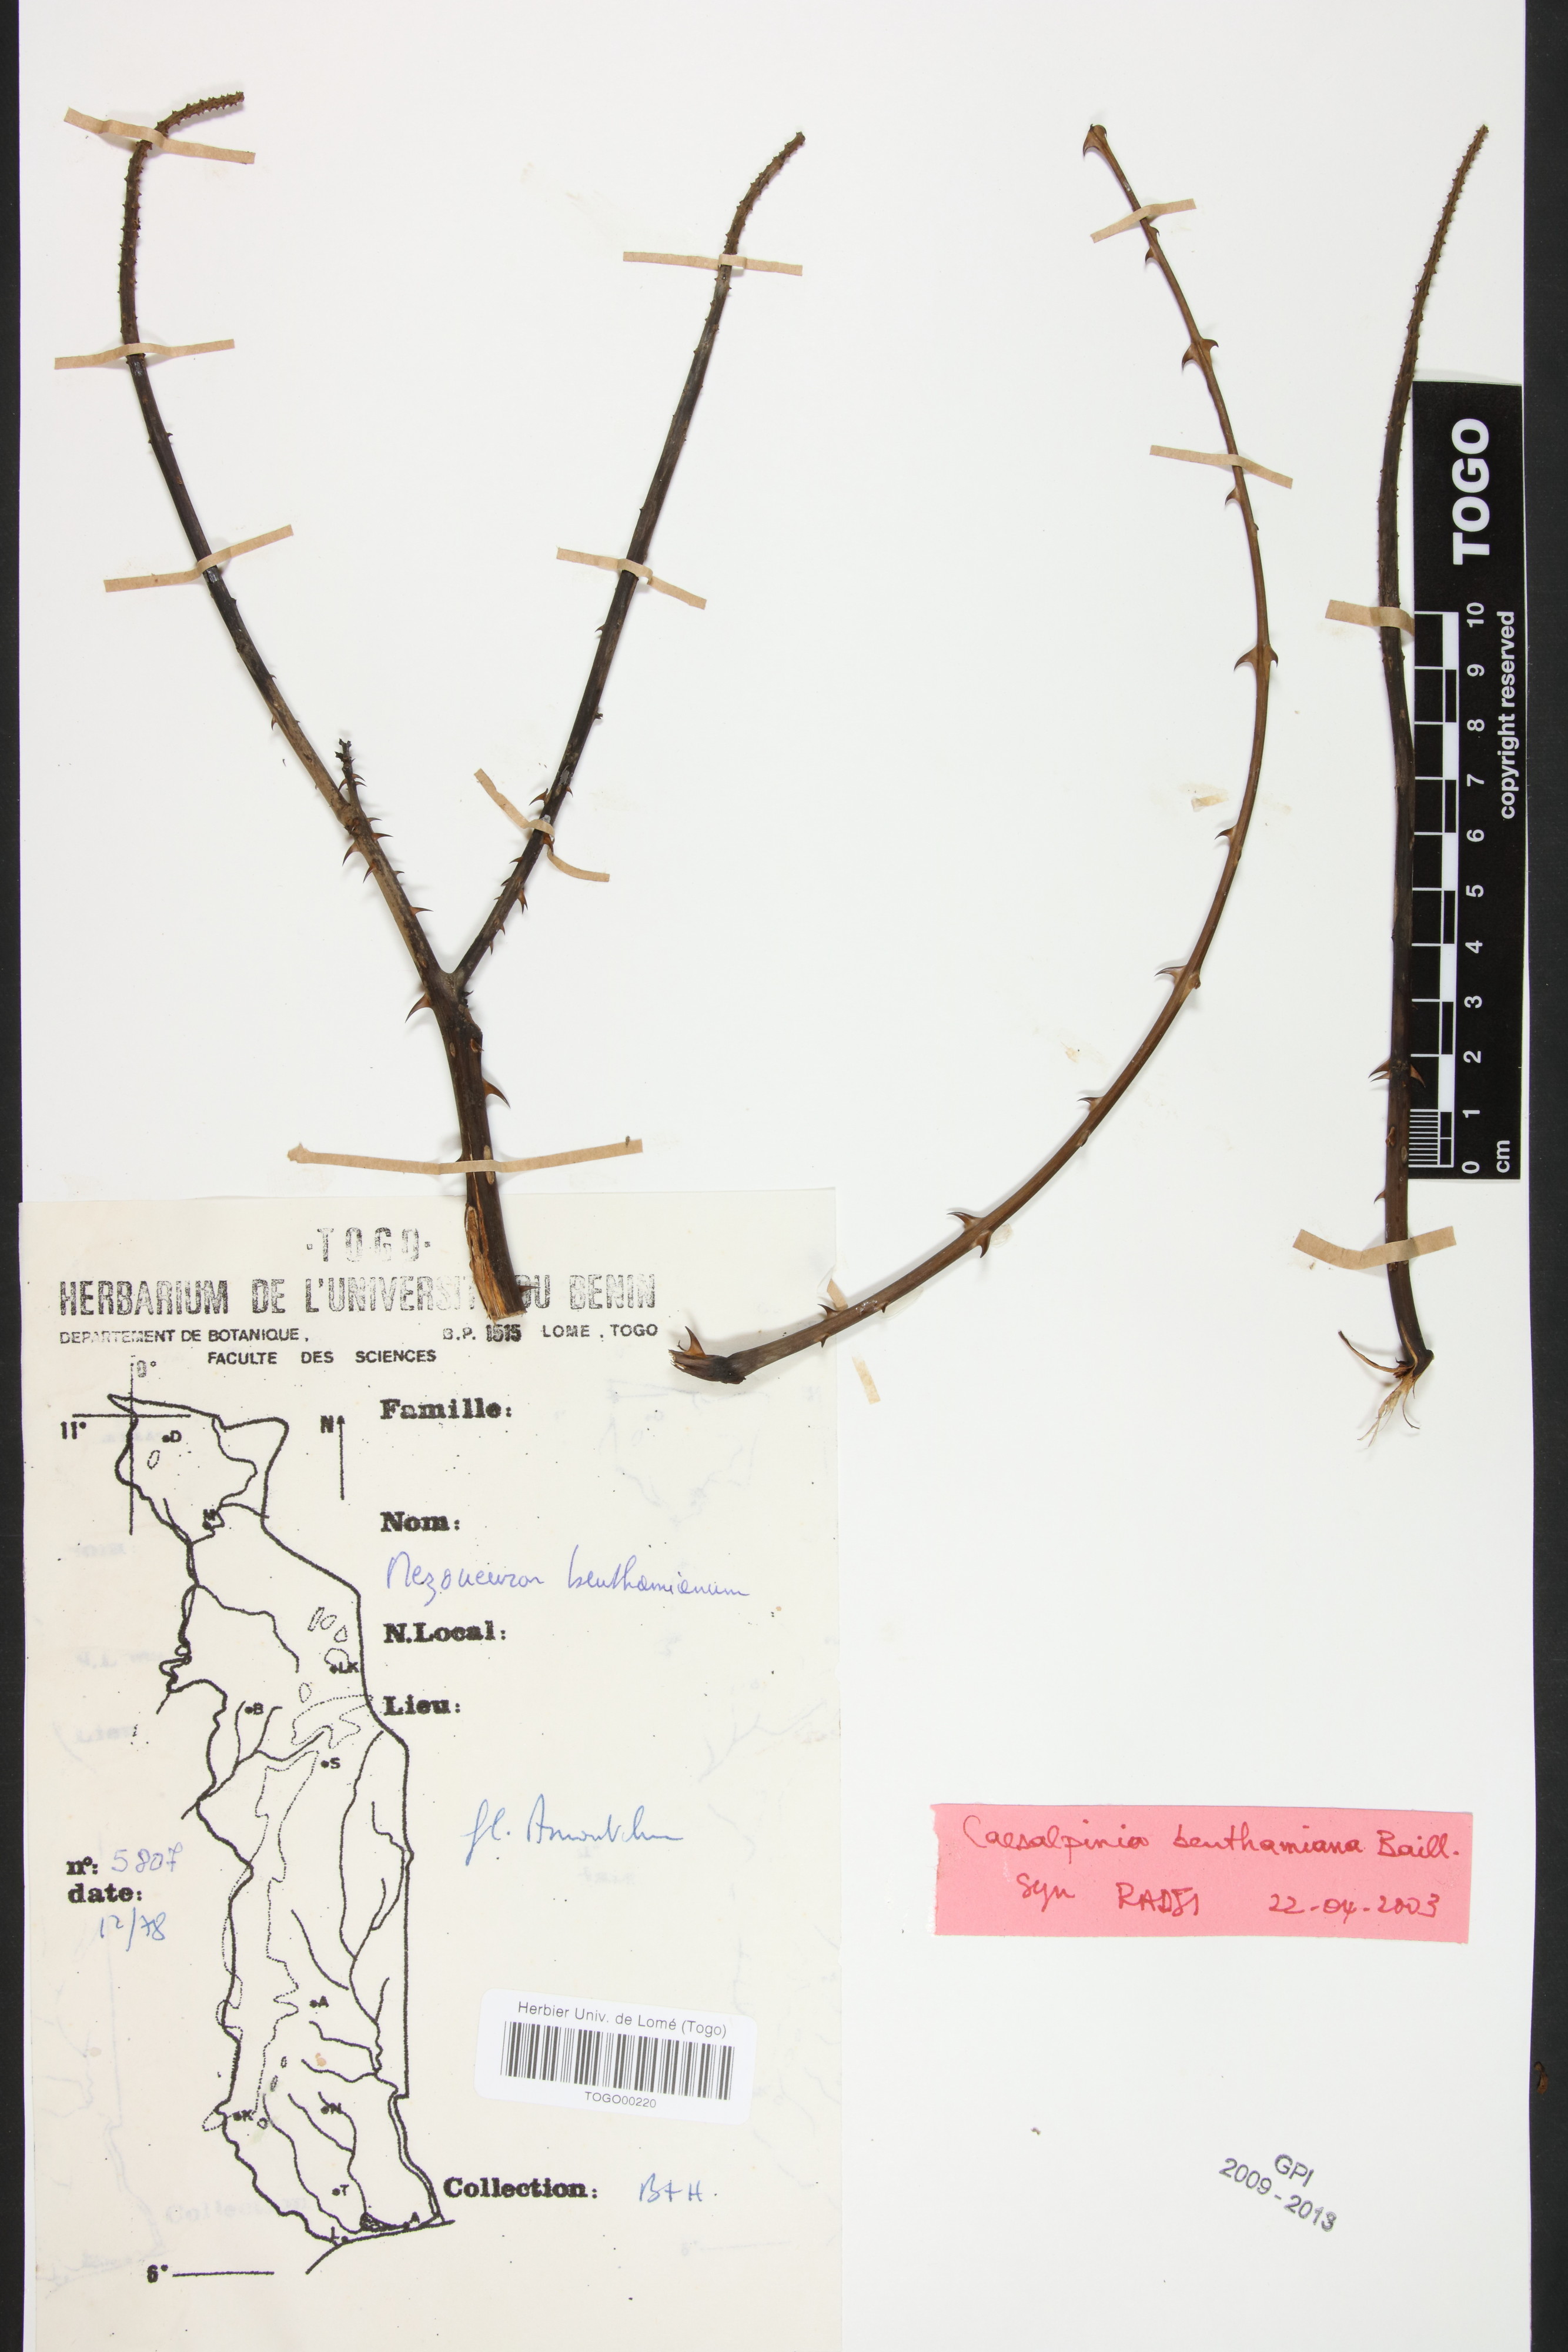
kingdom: Plantae
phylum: Tracheophyta
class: Magnoliopsida
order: Fabales
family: Fabaceae
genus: Mezoneuron
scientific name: Mezoneuron benthamianum
